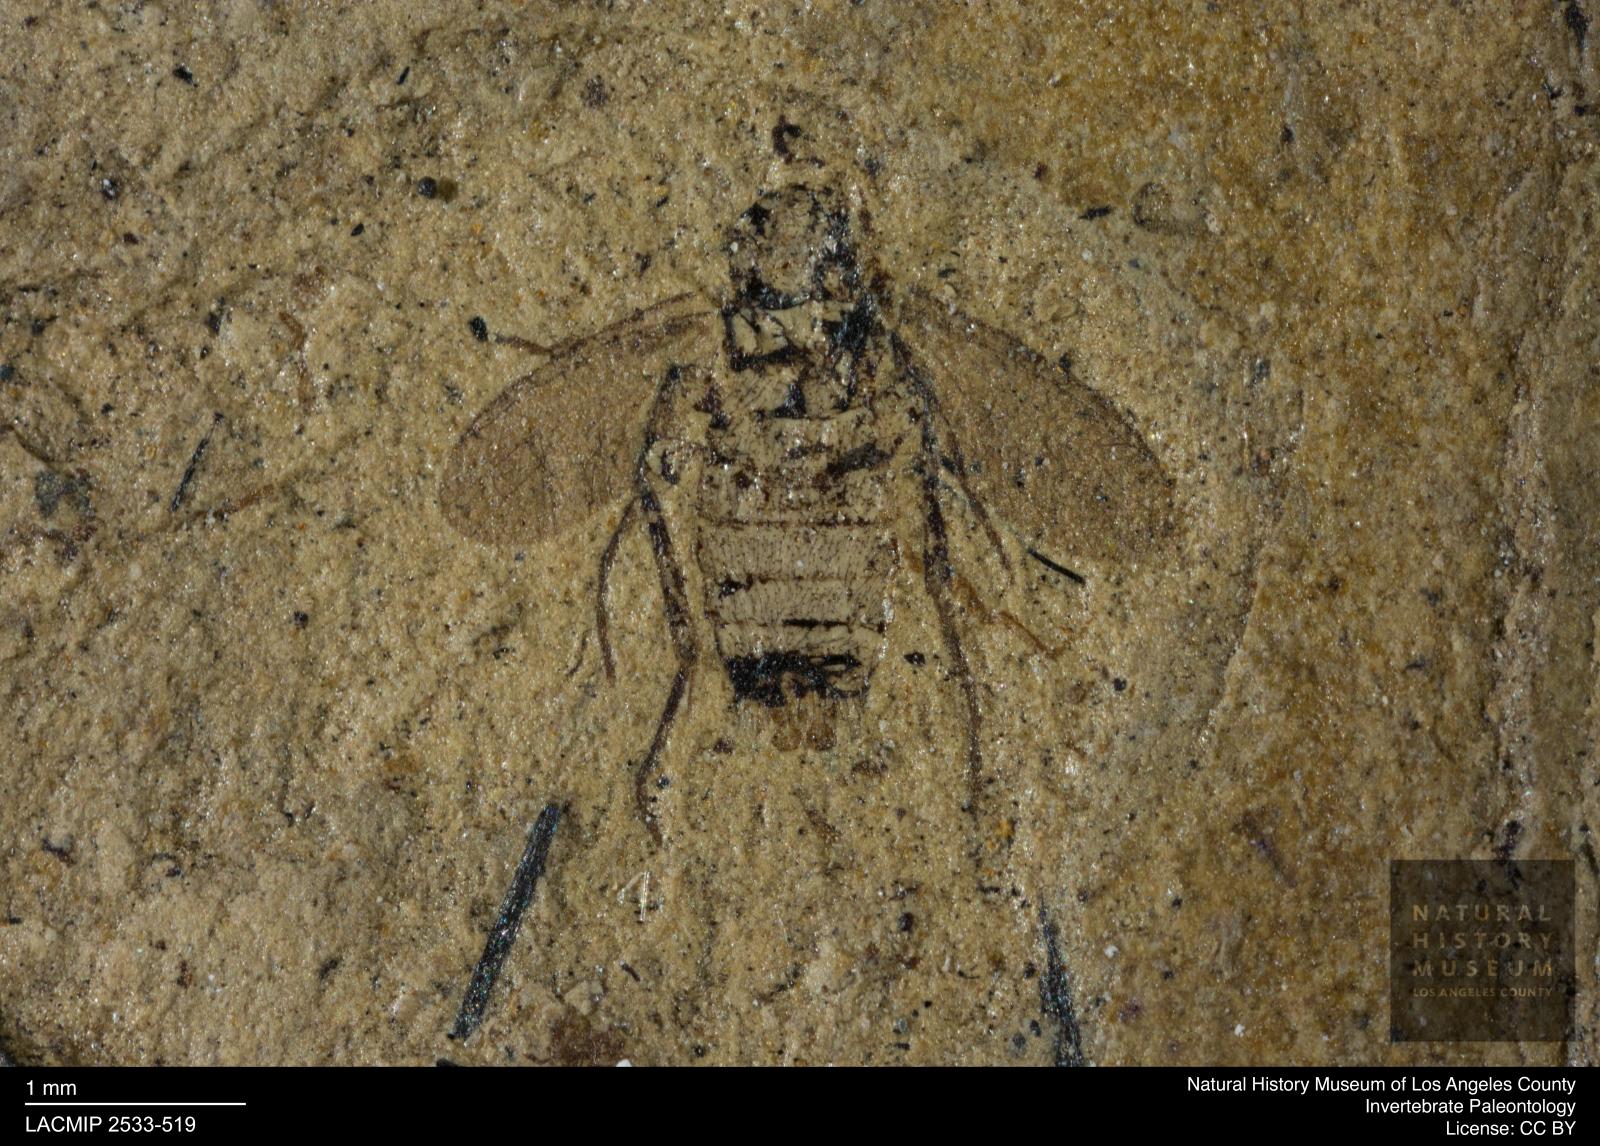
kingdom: Animalia
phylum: Arthropoda
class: Insecta
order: Diptera
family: Mycetophilidae
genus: Docosia
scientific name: Docosia pilosa
